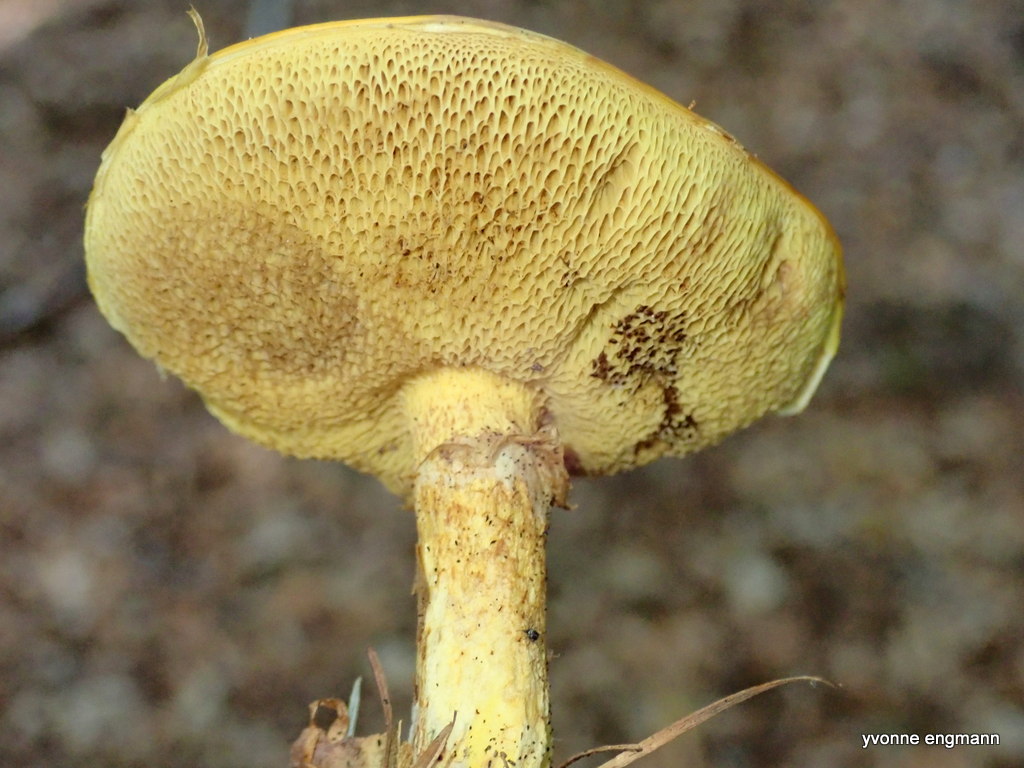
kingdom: Fungi
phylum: Basidiomycota
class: Agaricomycetes
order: Boletales
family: Suillaceae
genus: Suillus
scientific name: Suillus grevillei
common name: lærke-slimrørhat
